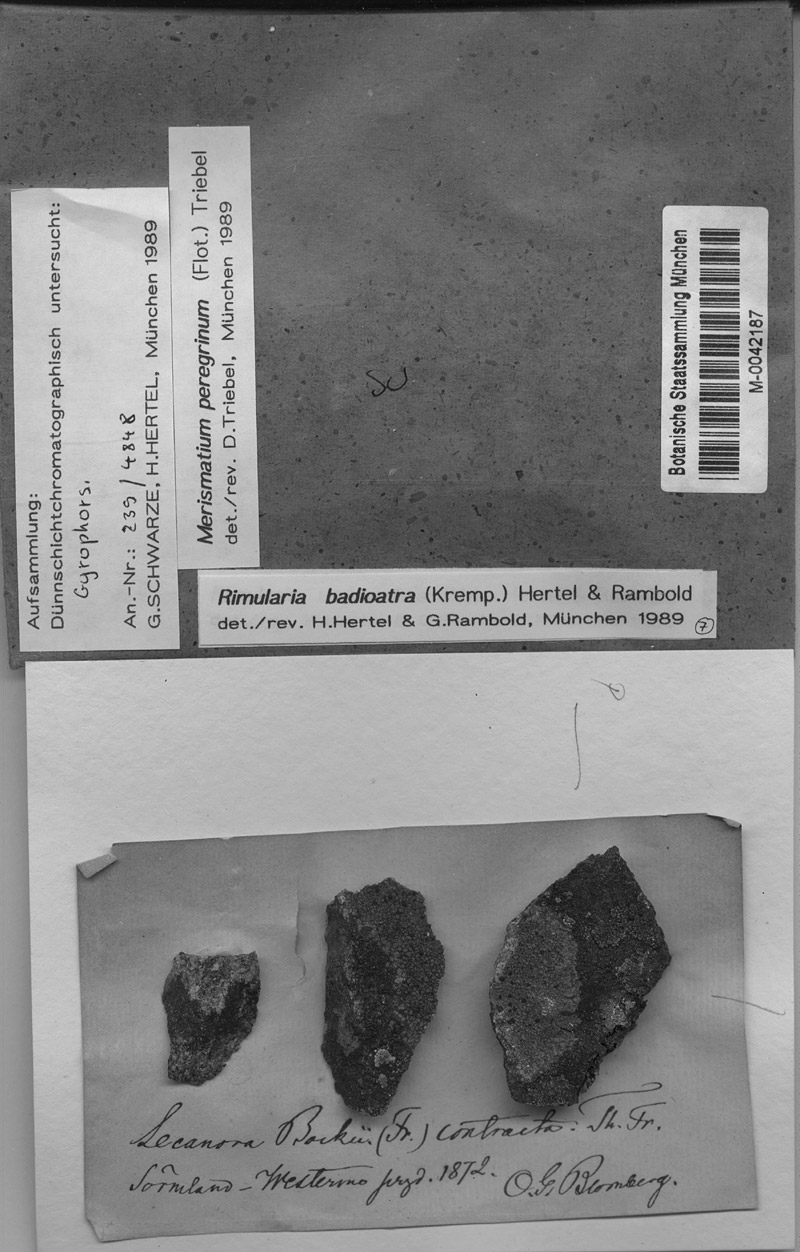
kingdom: Fungi
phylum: Ascomycota
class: Eurotiomycetes
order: Verrucariales
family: Verrucariaceae
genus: Merismatium
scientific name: Merismatium peregrinum
